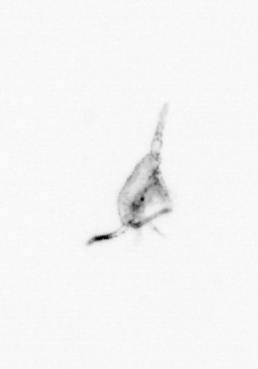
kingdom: Animalia
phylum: Arthropoda
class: Copepoda
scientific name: Copepoda
